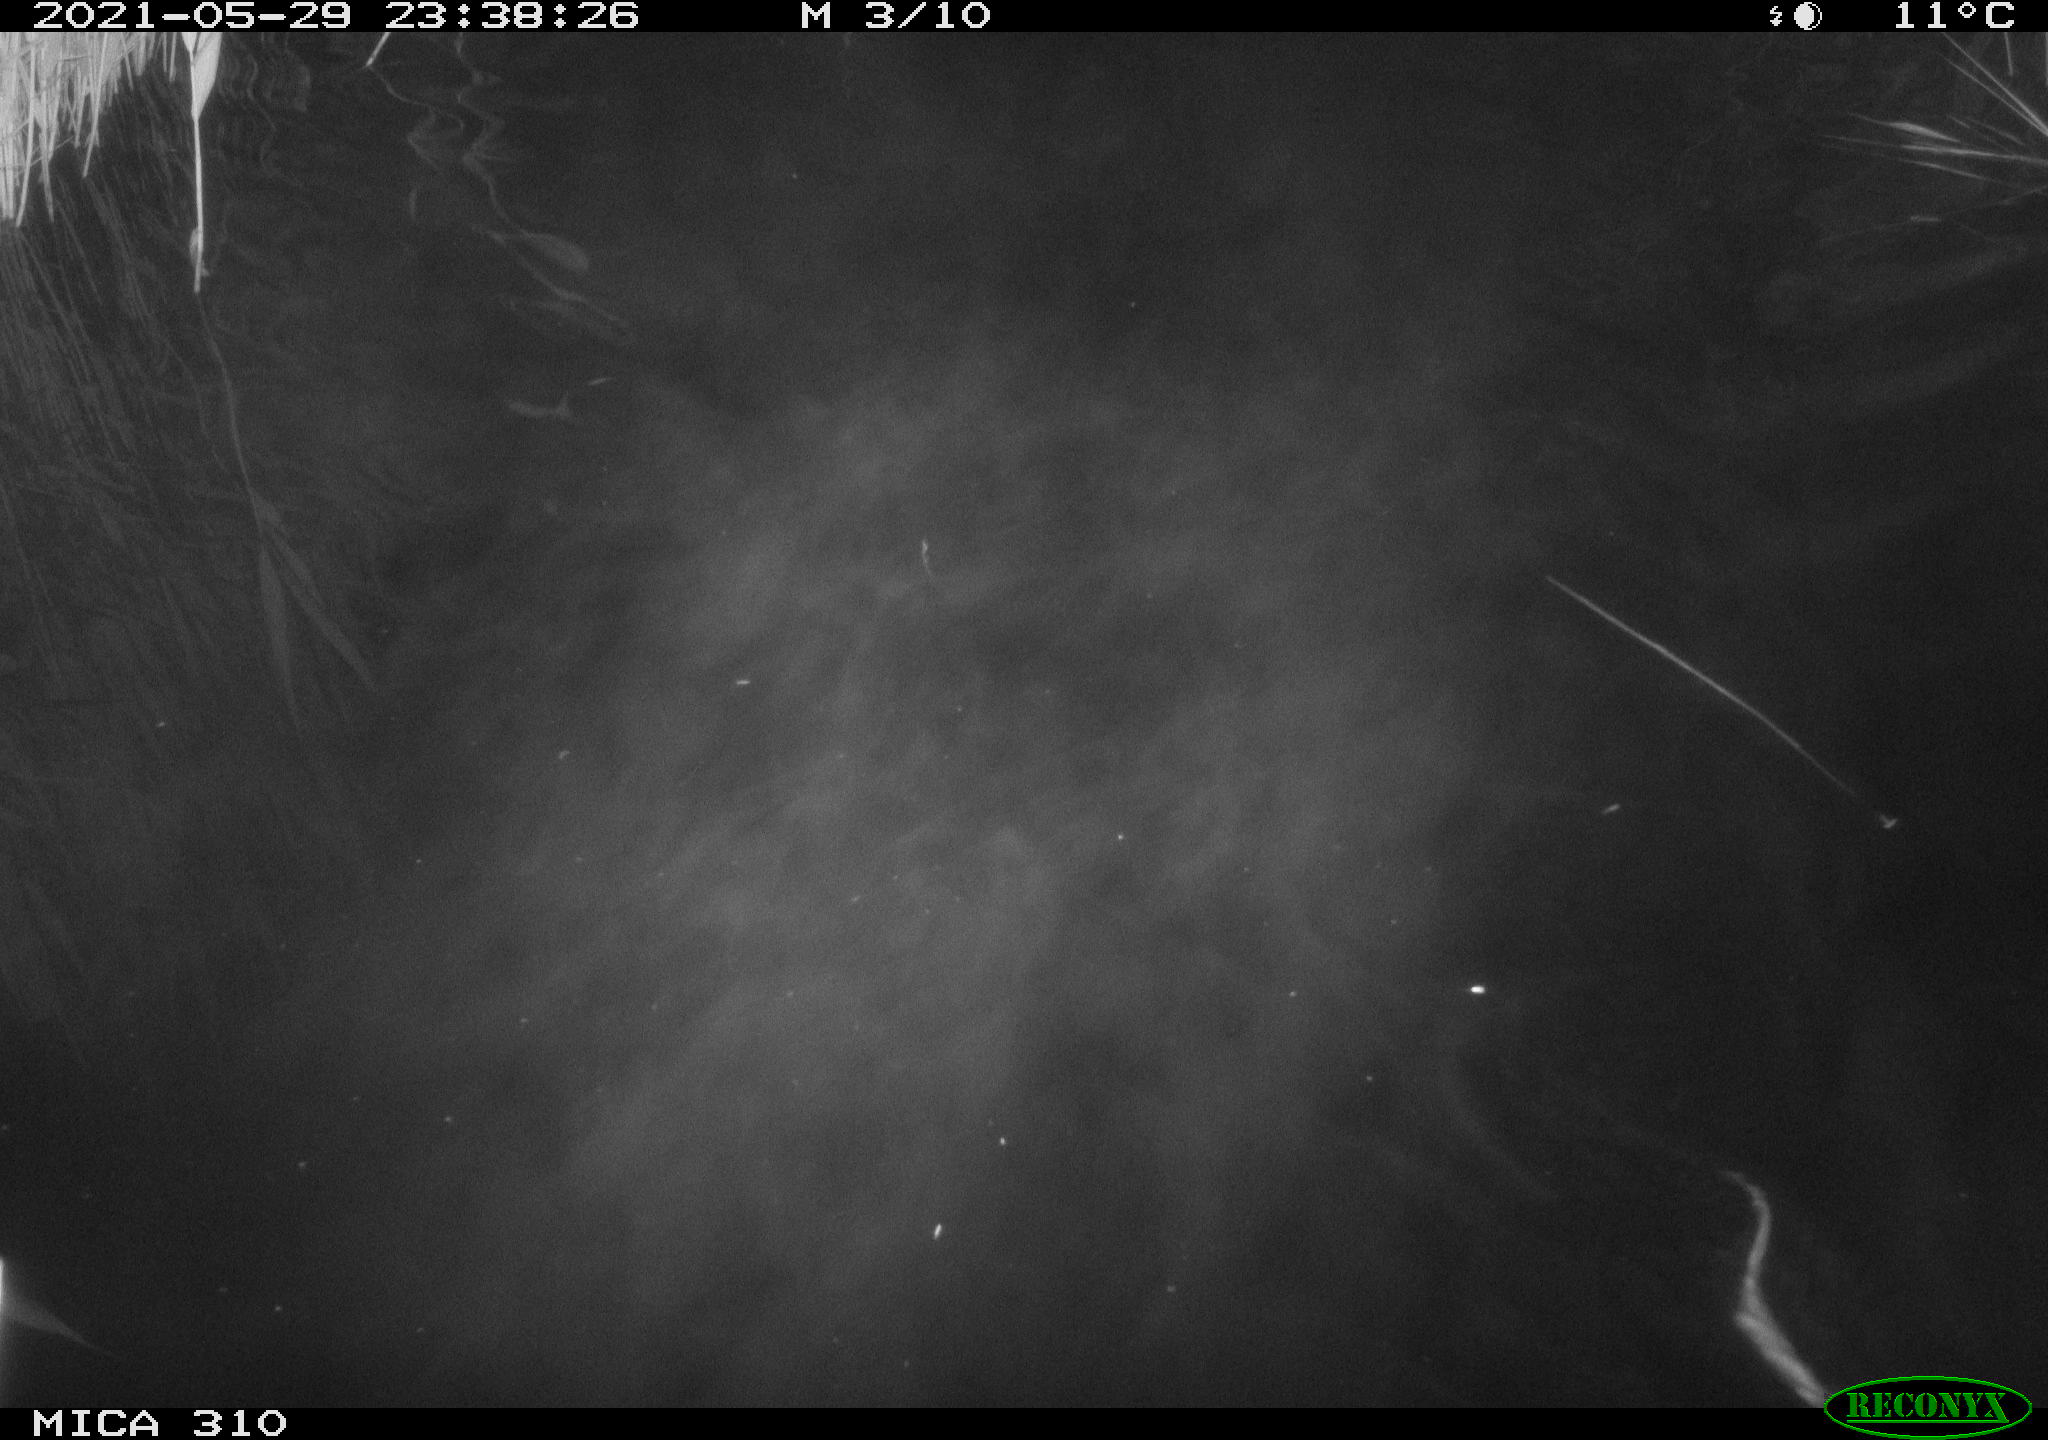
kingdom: Animalia
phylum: Chordata
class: Mammalia
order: Rodentia
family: Cricetidae
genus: Ondatra
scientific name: Ondatra zibethicus
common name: Muskrat
